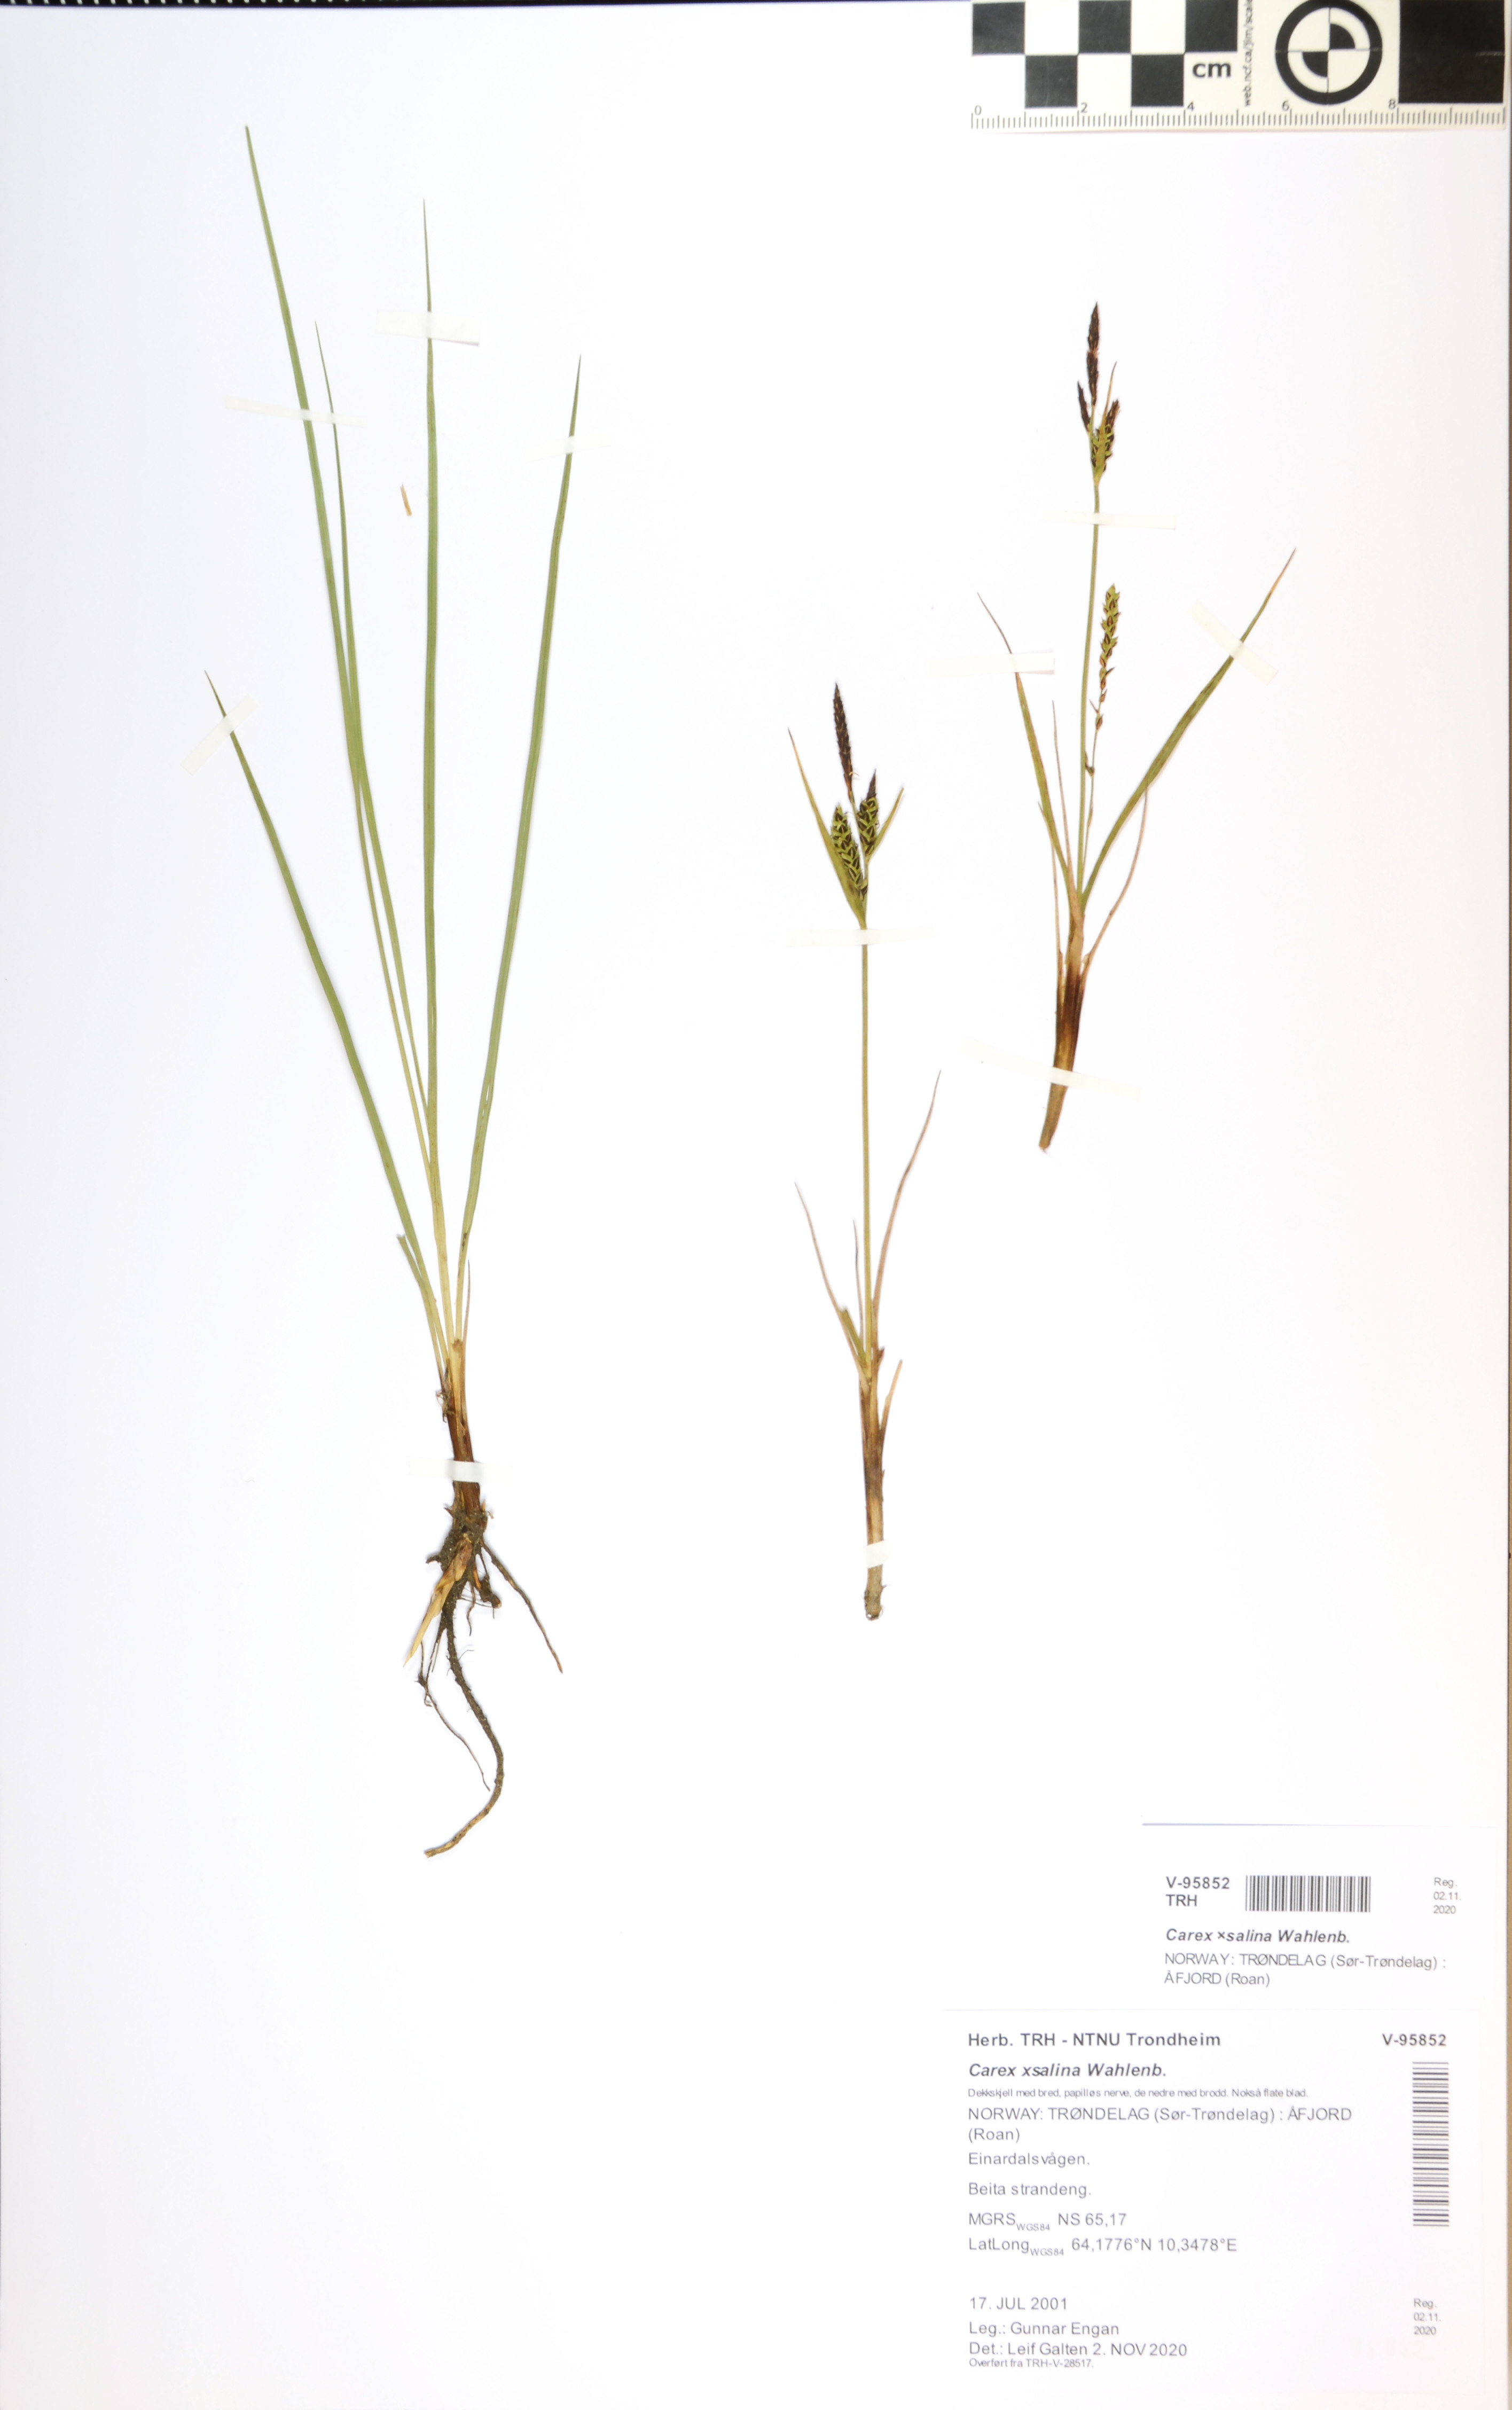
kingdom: Plantae
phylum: Tracheophyta
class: Liliopsida
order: Poales
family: Cyperaceae
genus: Carex
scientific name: Carex salina
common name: Saltmarsh sedge
